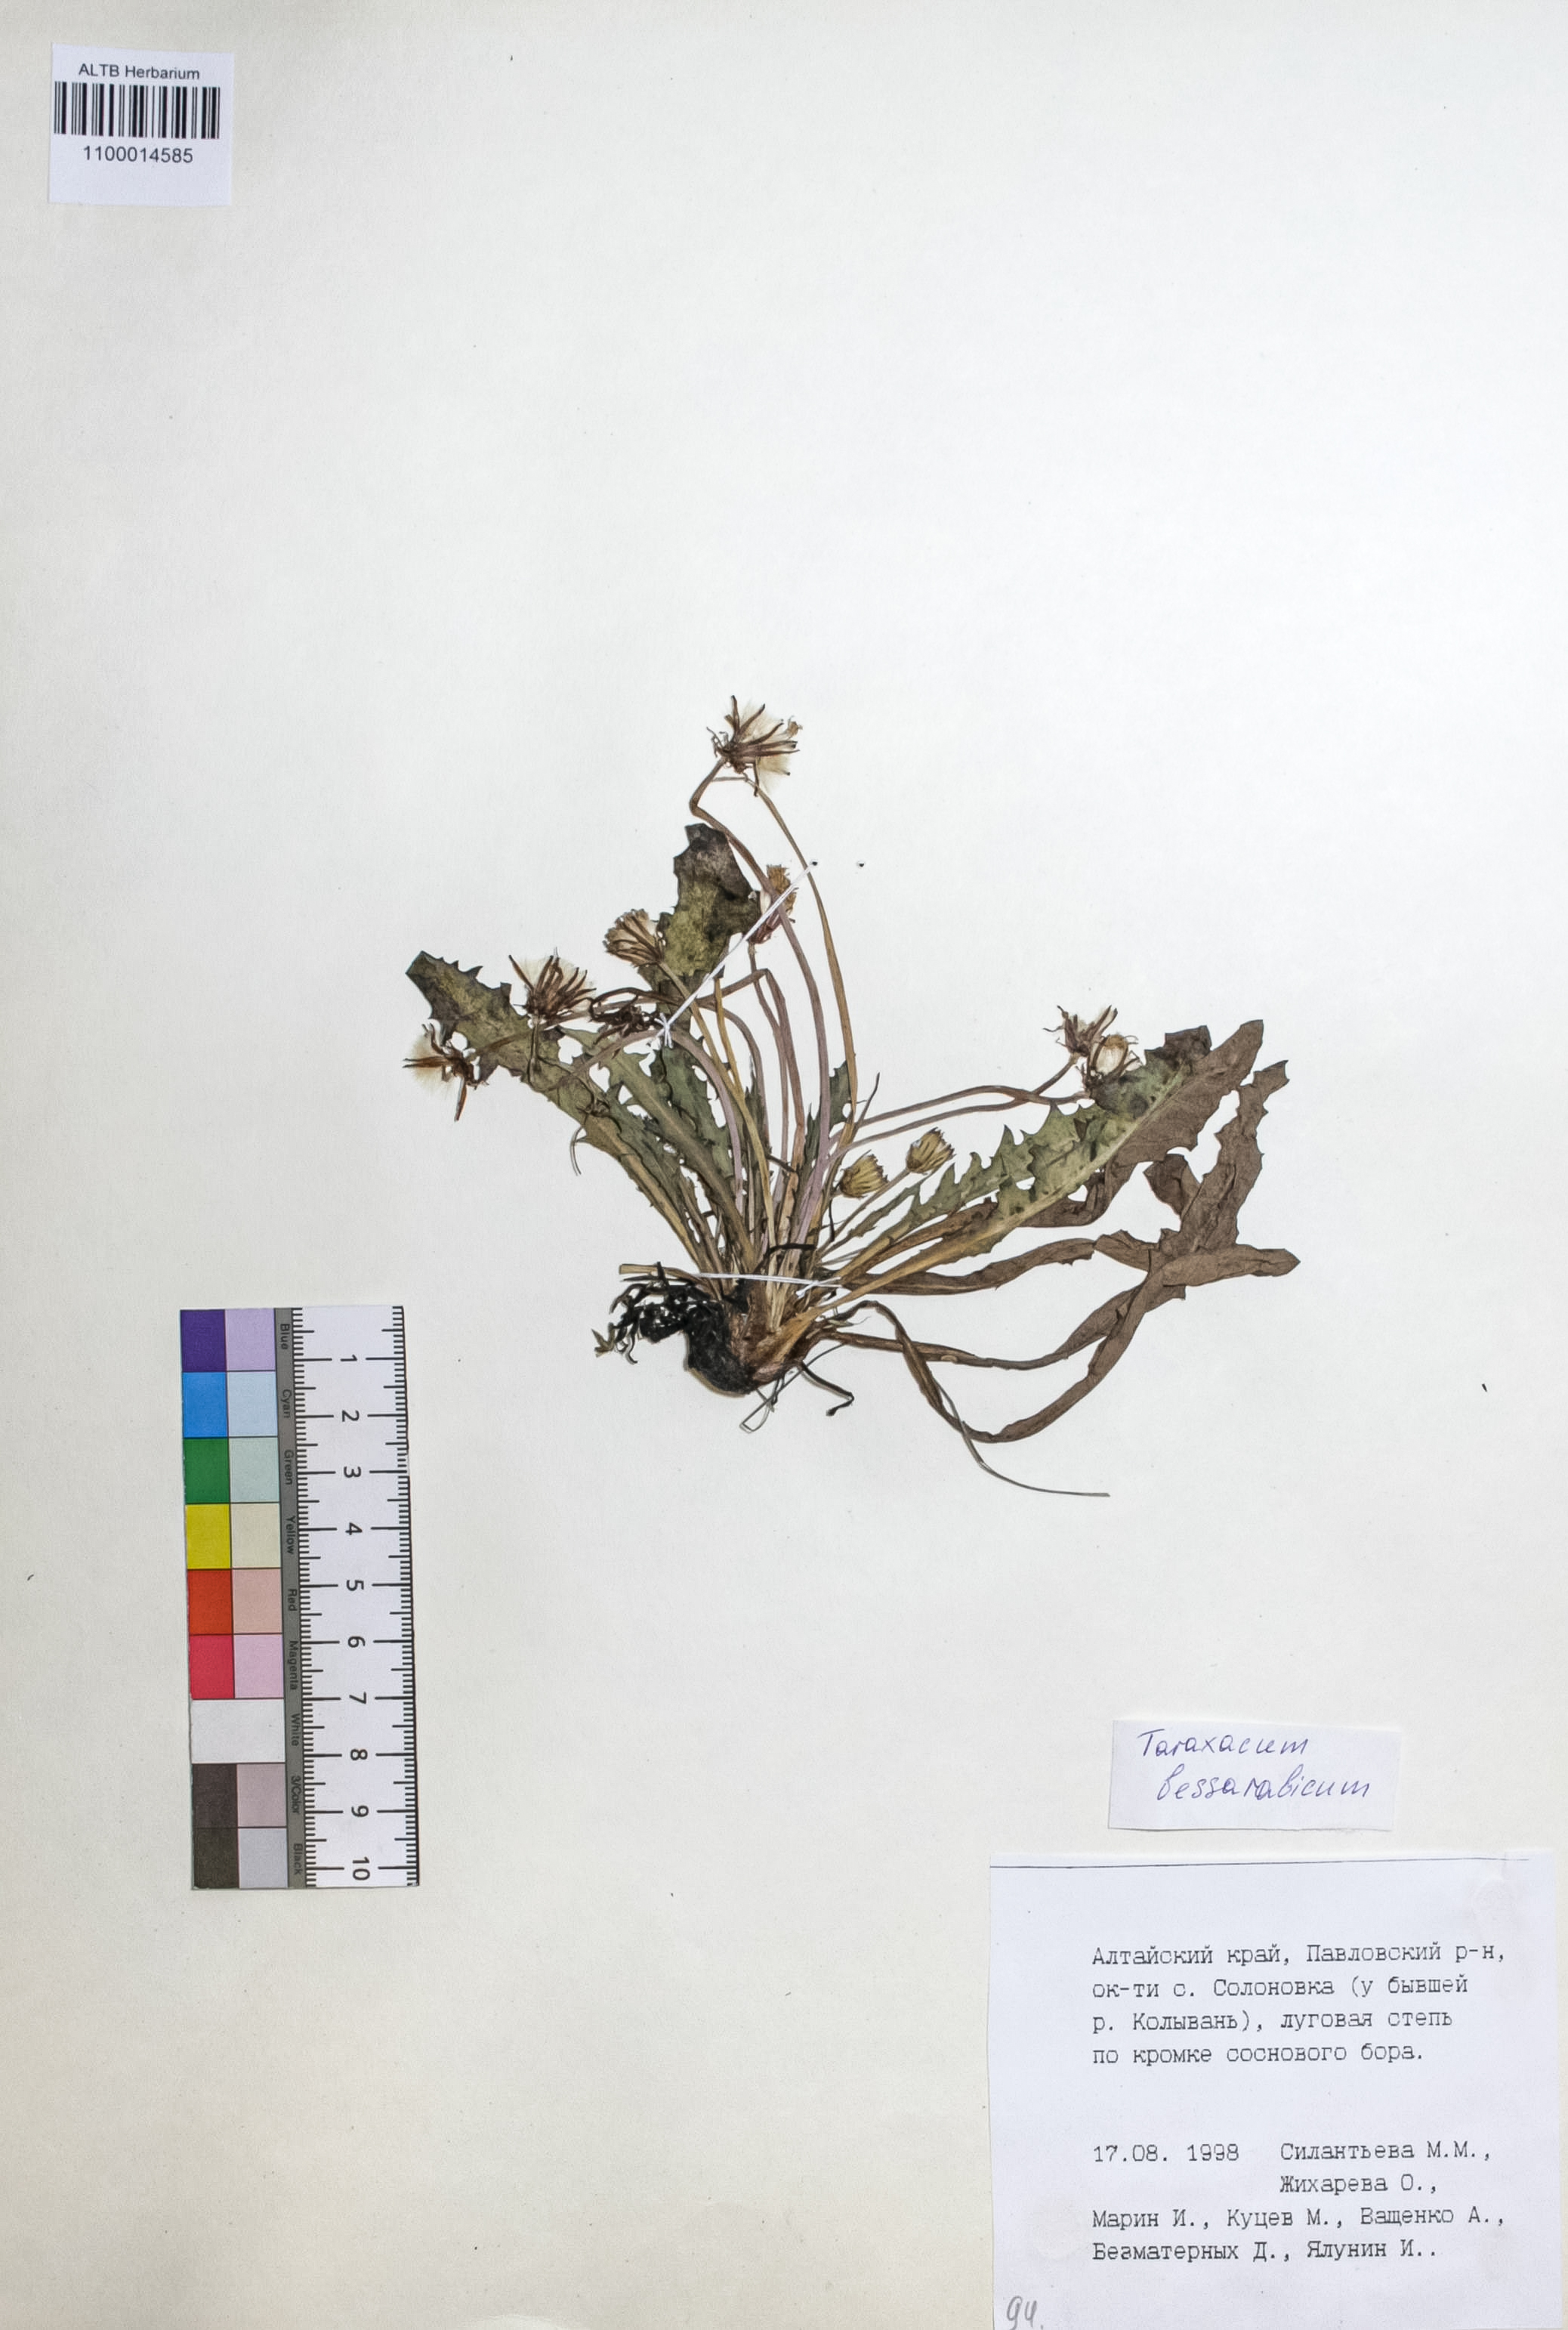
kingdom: Plantae
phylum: Tracheophyta
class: Magnoliopsida
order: Asterales
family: Asteraceae
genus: Taraxacum
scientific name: Taraxacum bessarabicum
